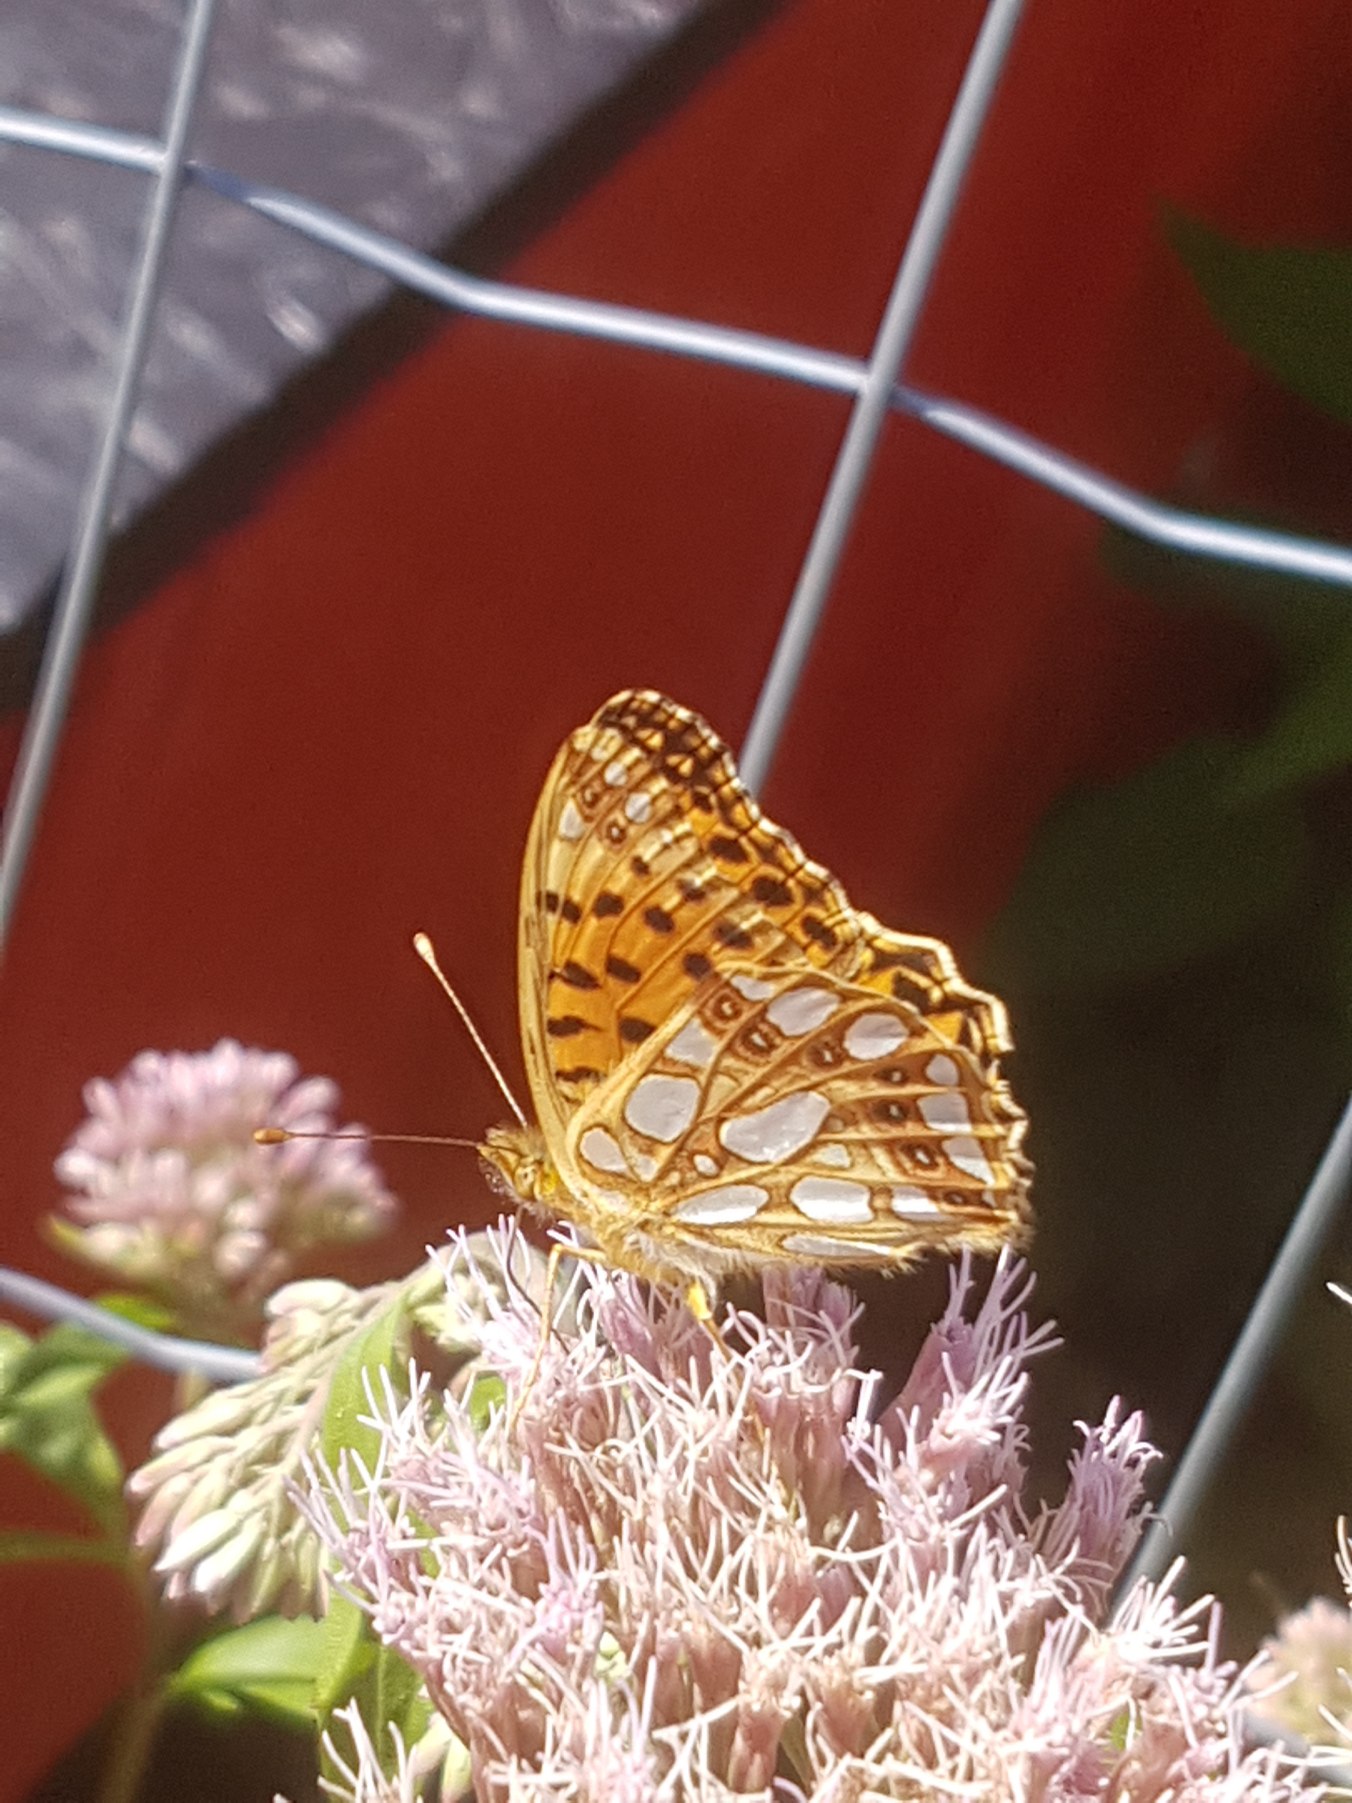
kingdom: Animalia
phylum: Arthropoda
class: Insecta
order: Lepidoptera
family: Nymphalidae
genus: Issoria
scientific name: Issoria lathonia
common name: Storplettet perlemorsommerfugl
